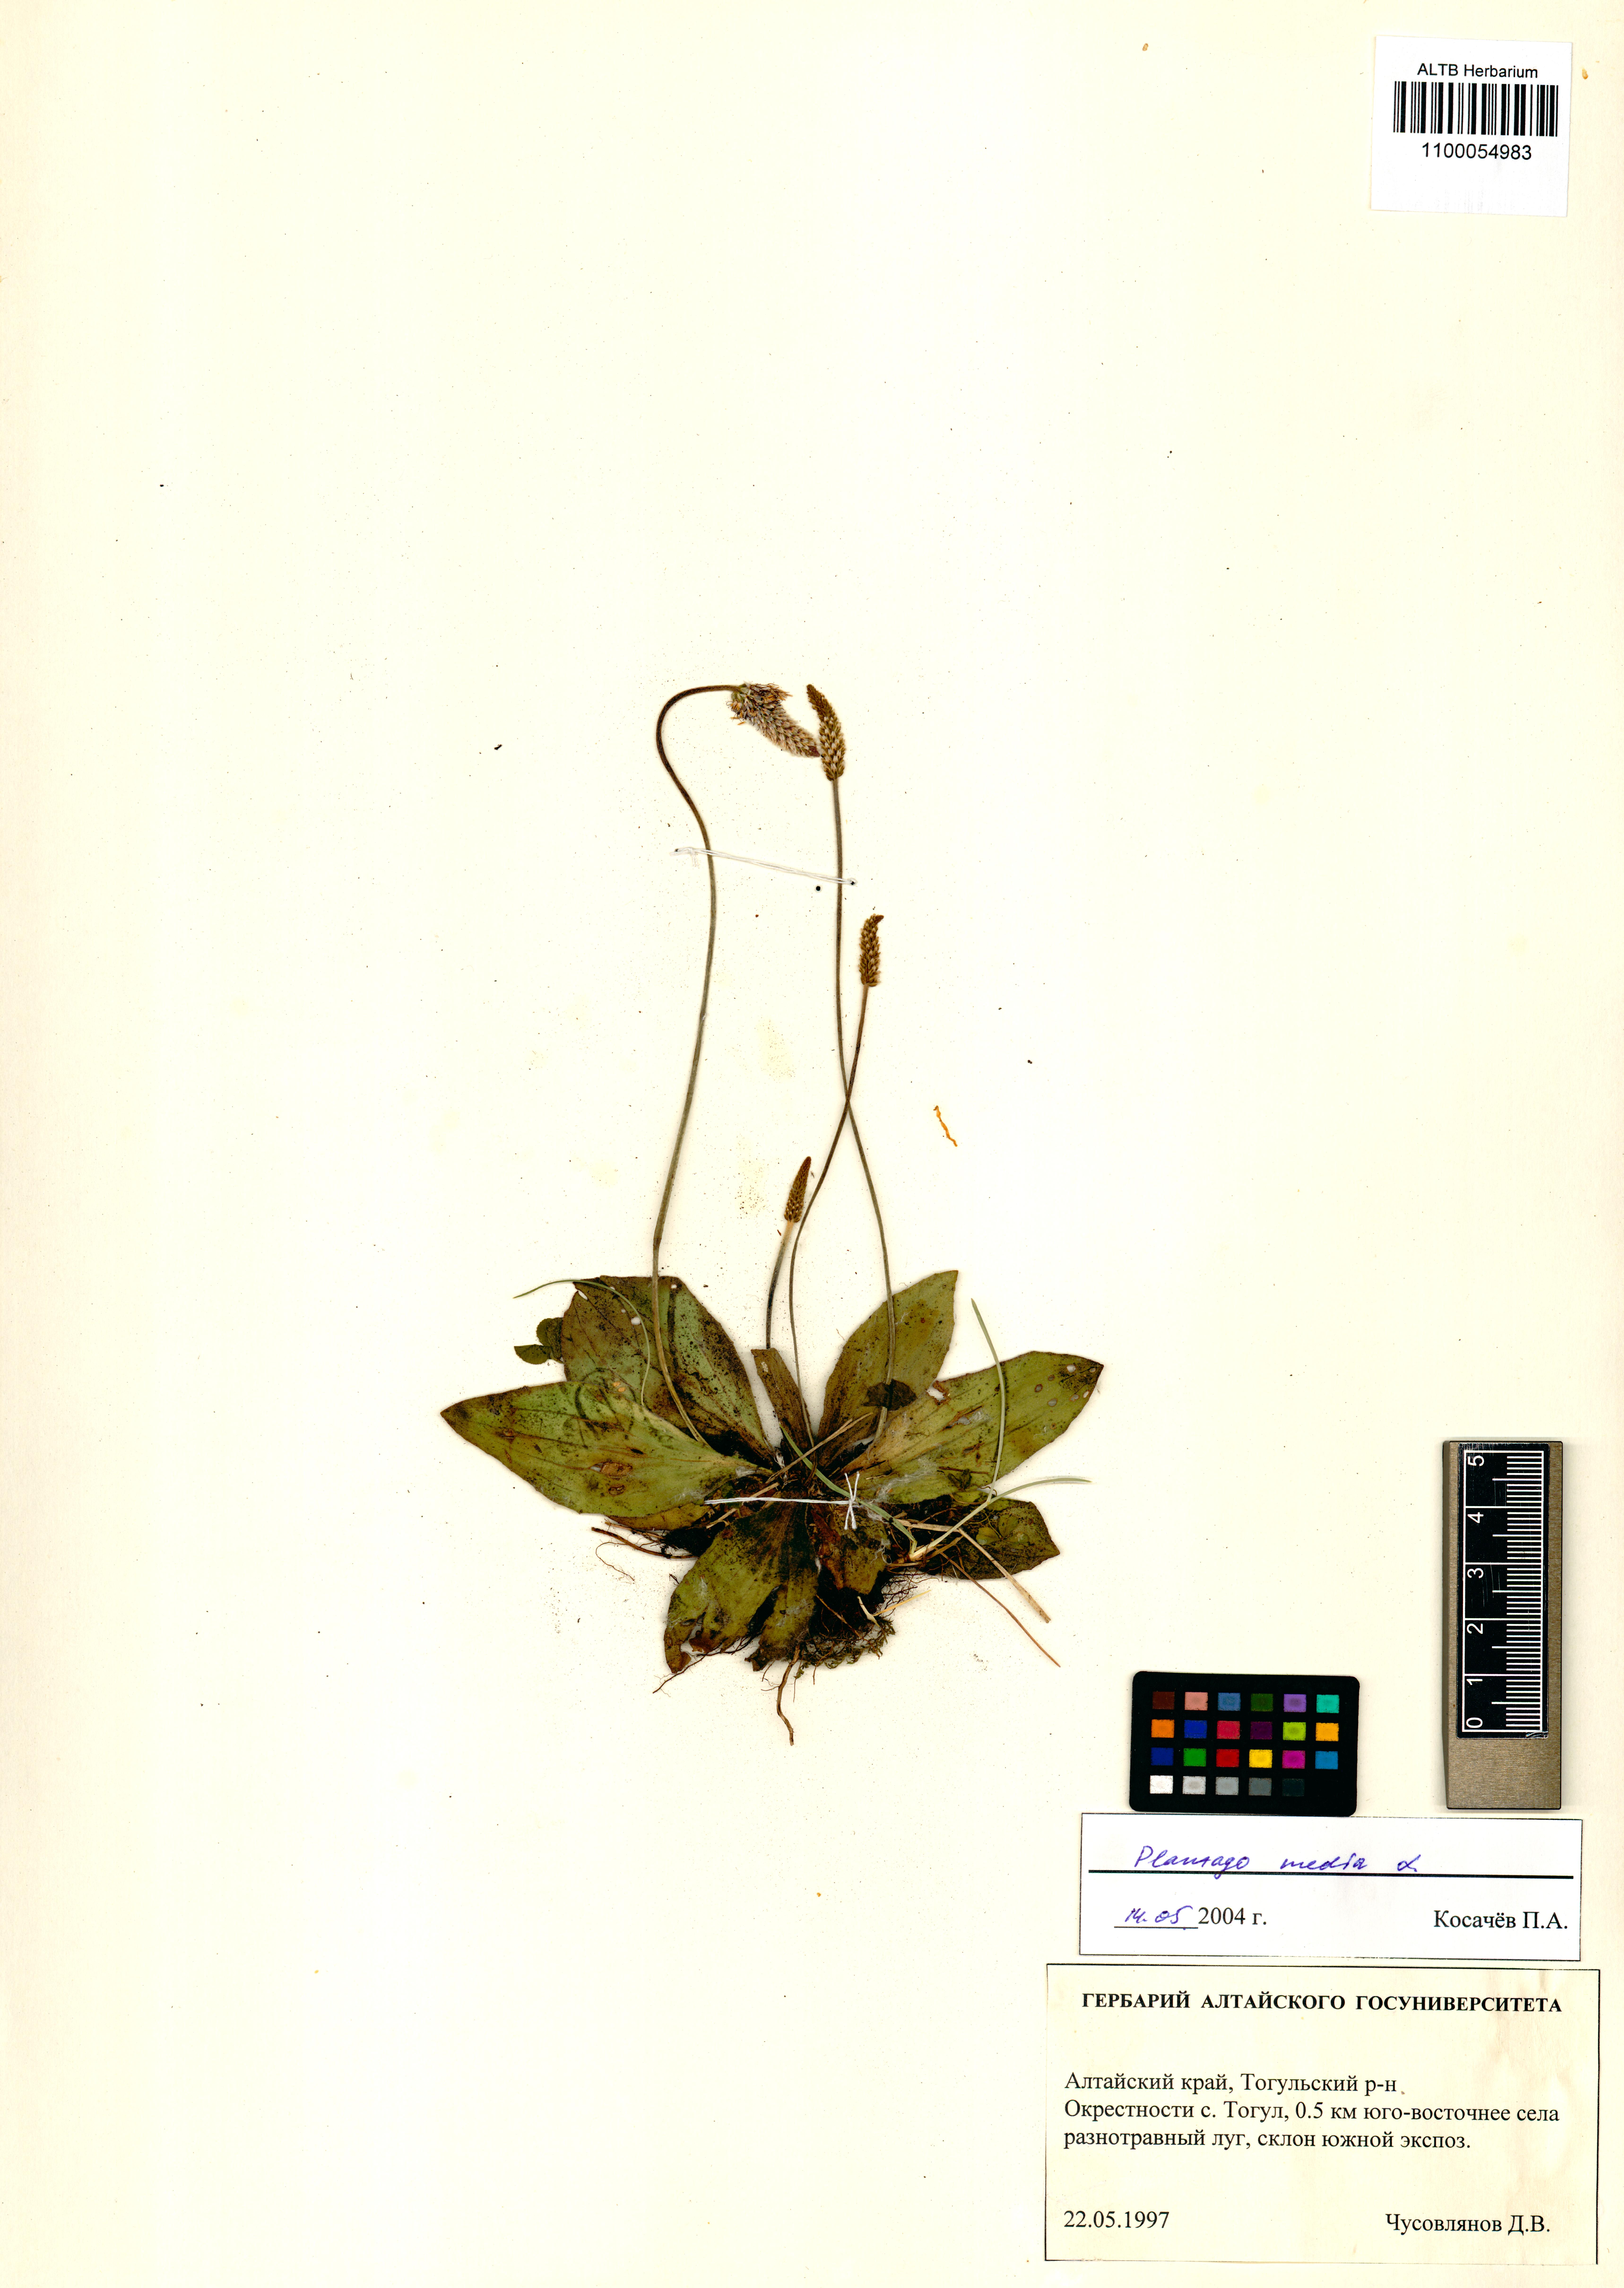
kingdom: Plantae
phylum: Tracheophyta
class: Magnoliopsida
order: Lamiales
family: Plantaginaceae
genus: Plantago
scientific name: Plantago media
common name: Hoary plantain
